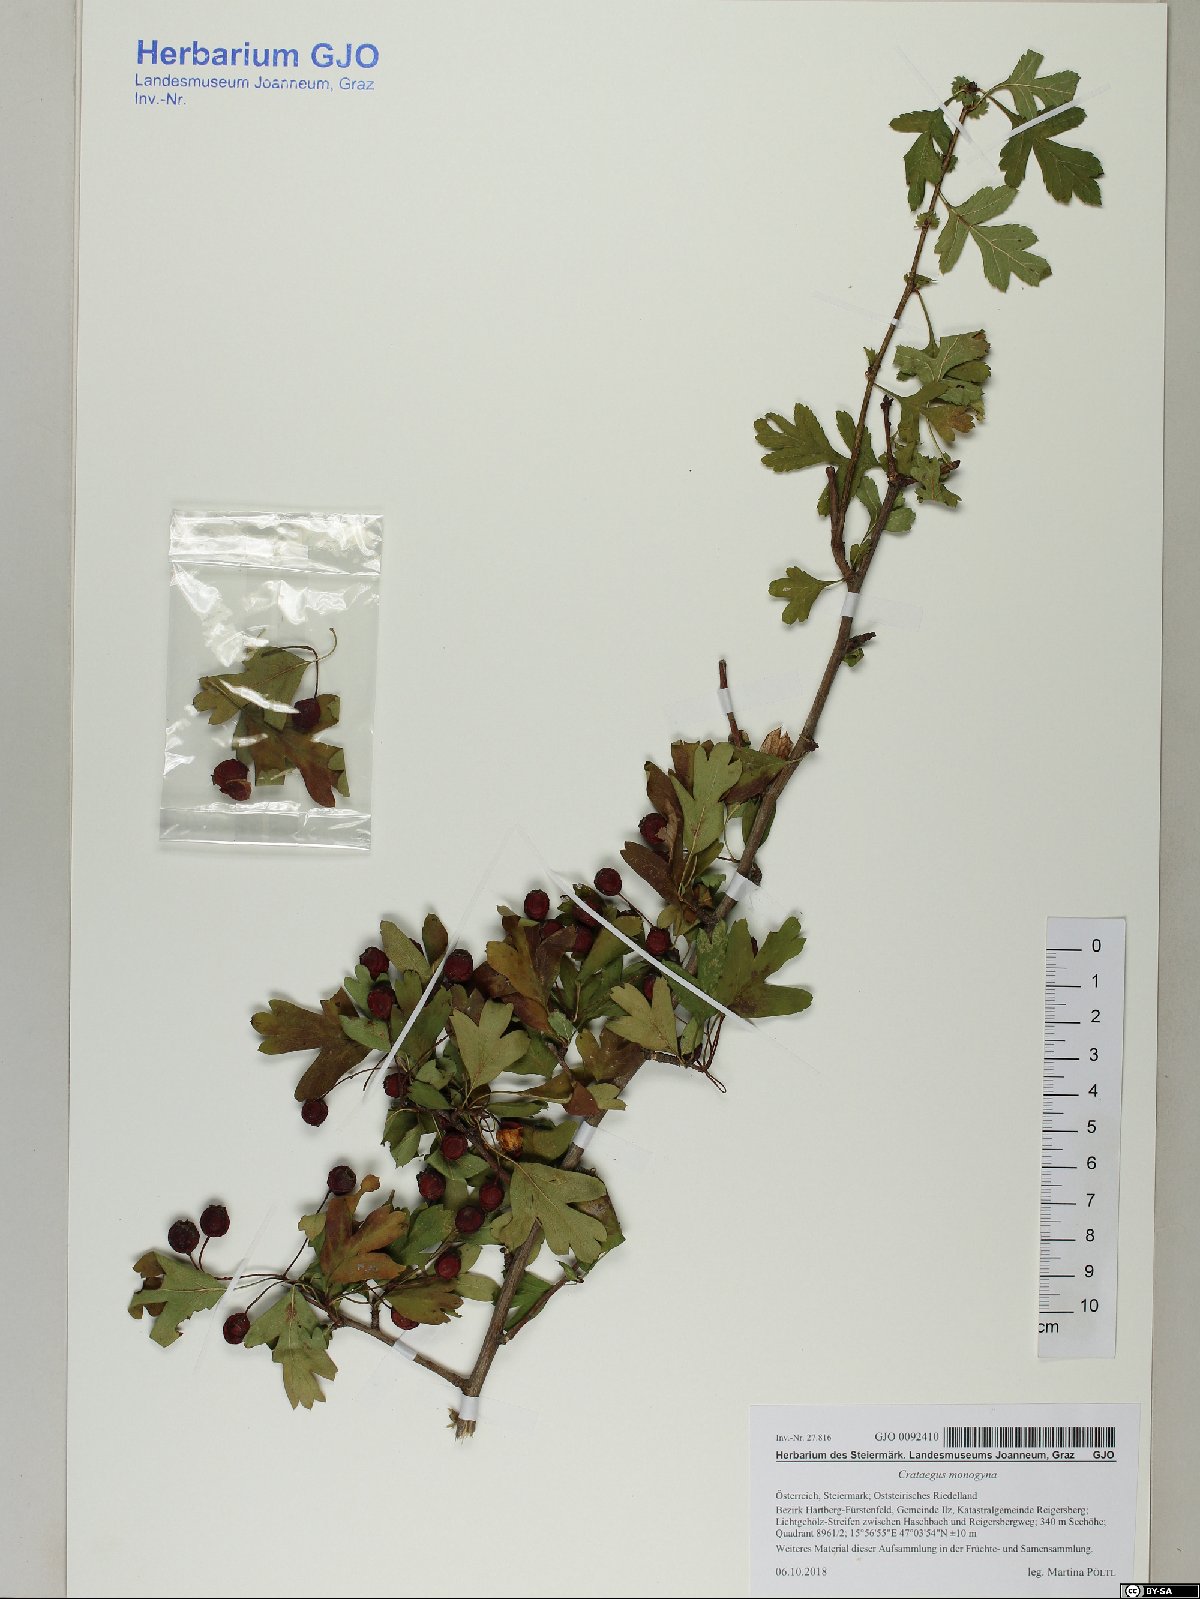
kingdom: Plantae
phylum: Tracheophyta
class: Magnoliopsida
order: Rosales
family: Rosaceae
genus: Crataegus
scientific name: Crataegus monogyna
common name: Hawthorn
